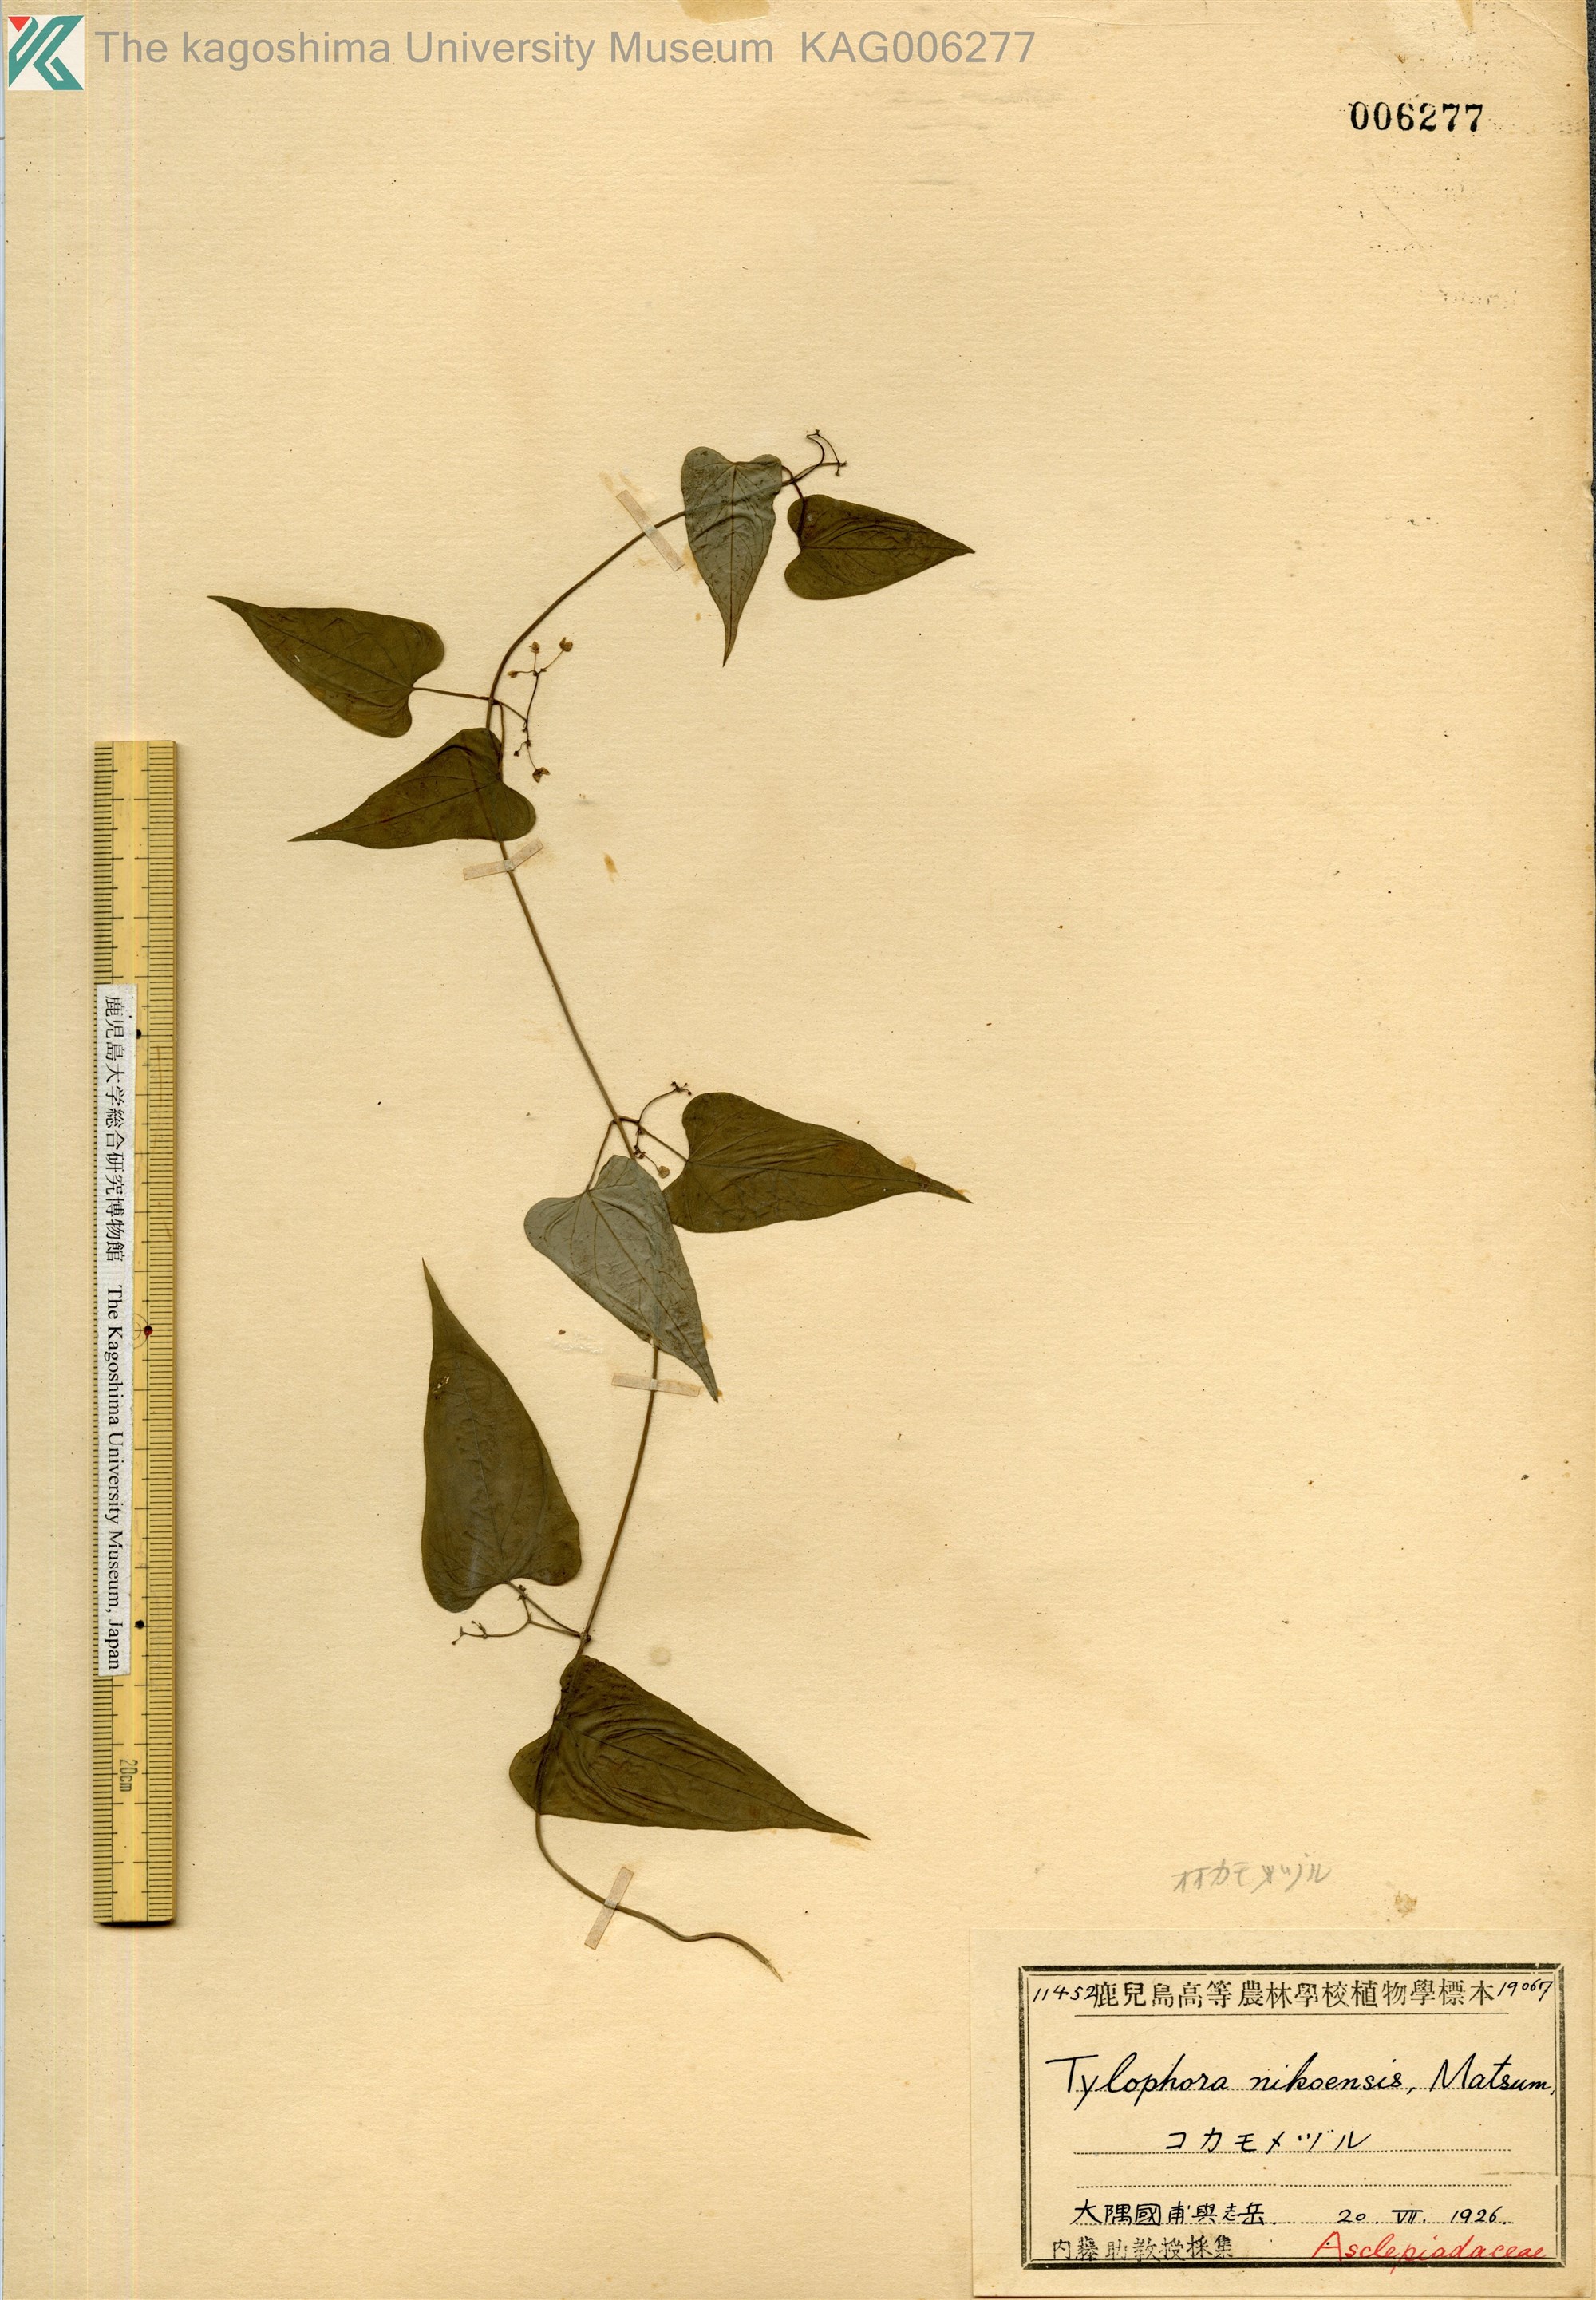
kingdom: Plantae
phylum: Tracheophyta
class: Magnoliopsida
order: Gentianales
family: Apocynaceae
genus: Vincetoxicum
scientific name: Vincetoxicum aristolochioides
